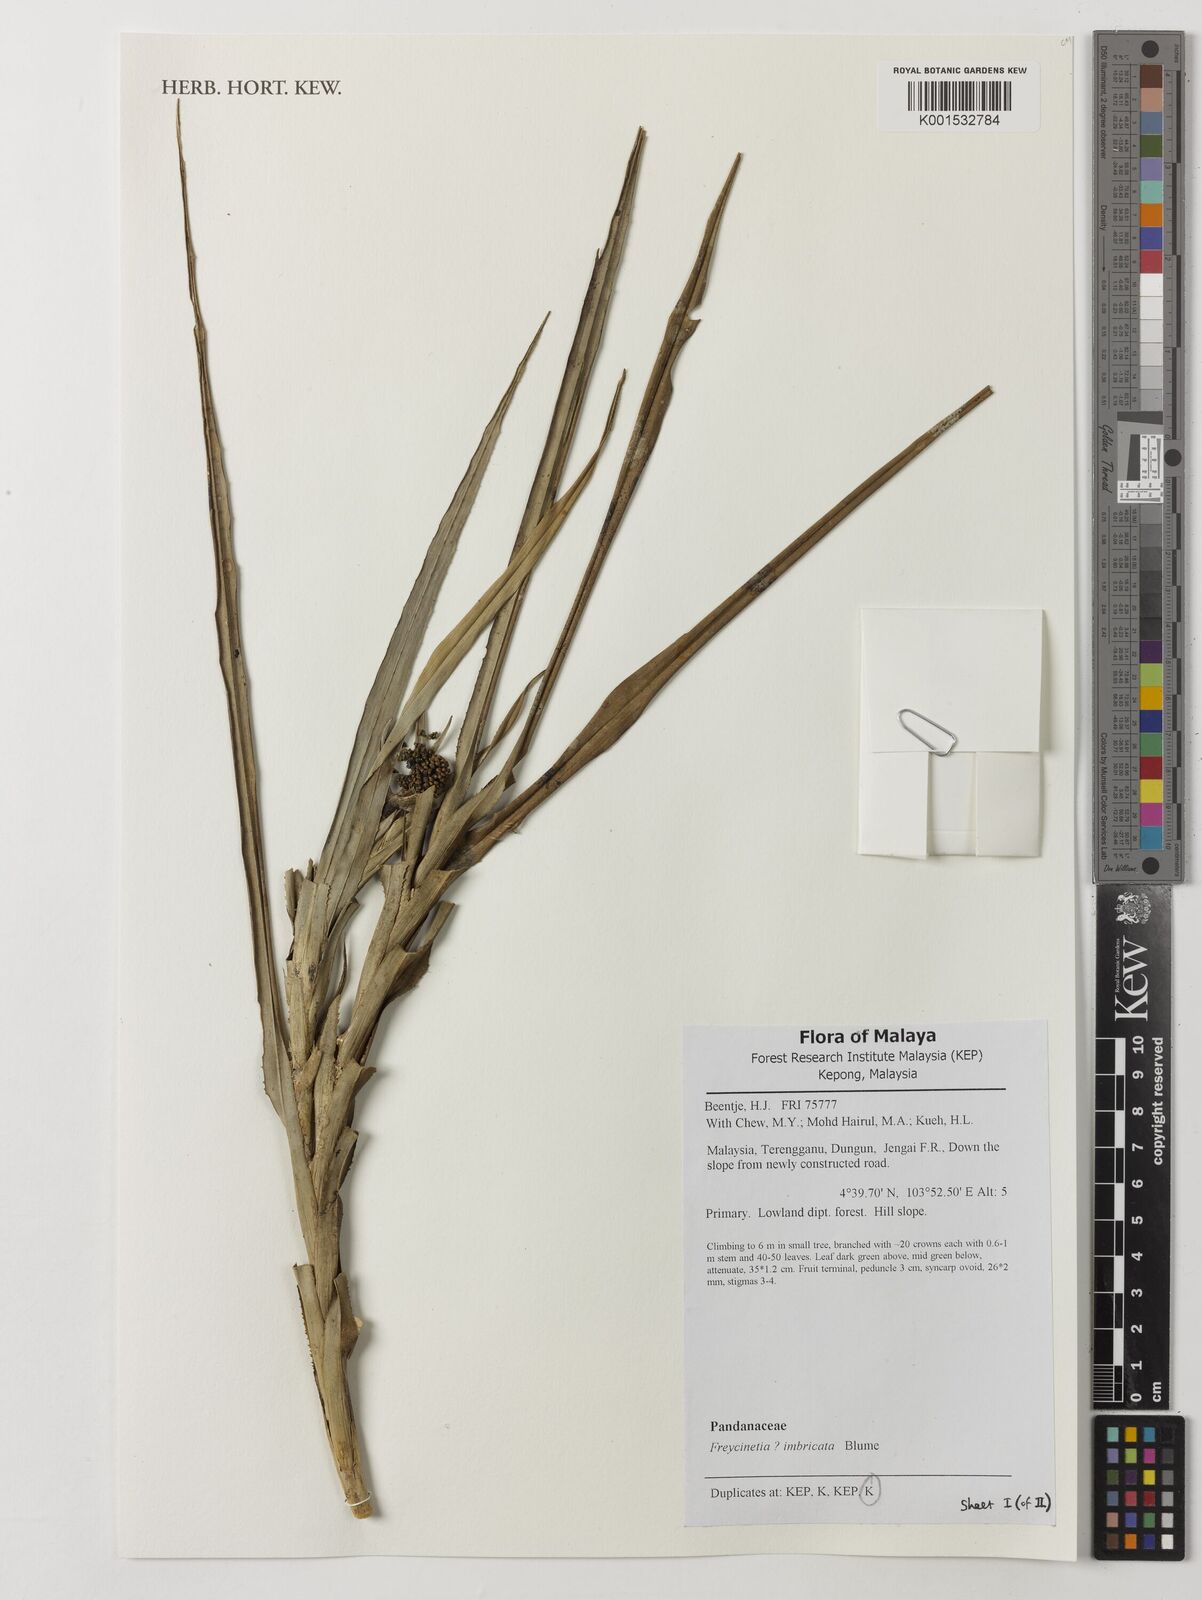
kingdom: Plantae
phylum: Tracheophyta
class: Liliopsida
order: Pandanales
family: Pandanaceae
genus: Freycinetia
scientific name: Freycinetia imbricata
